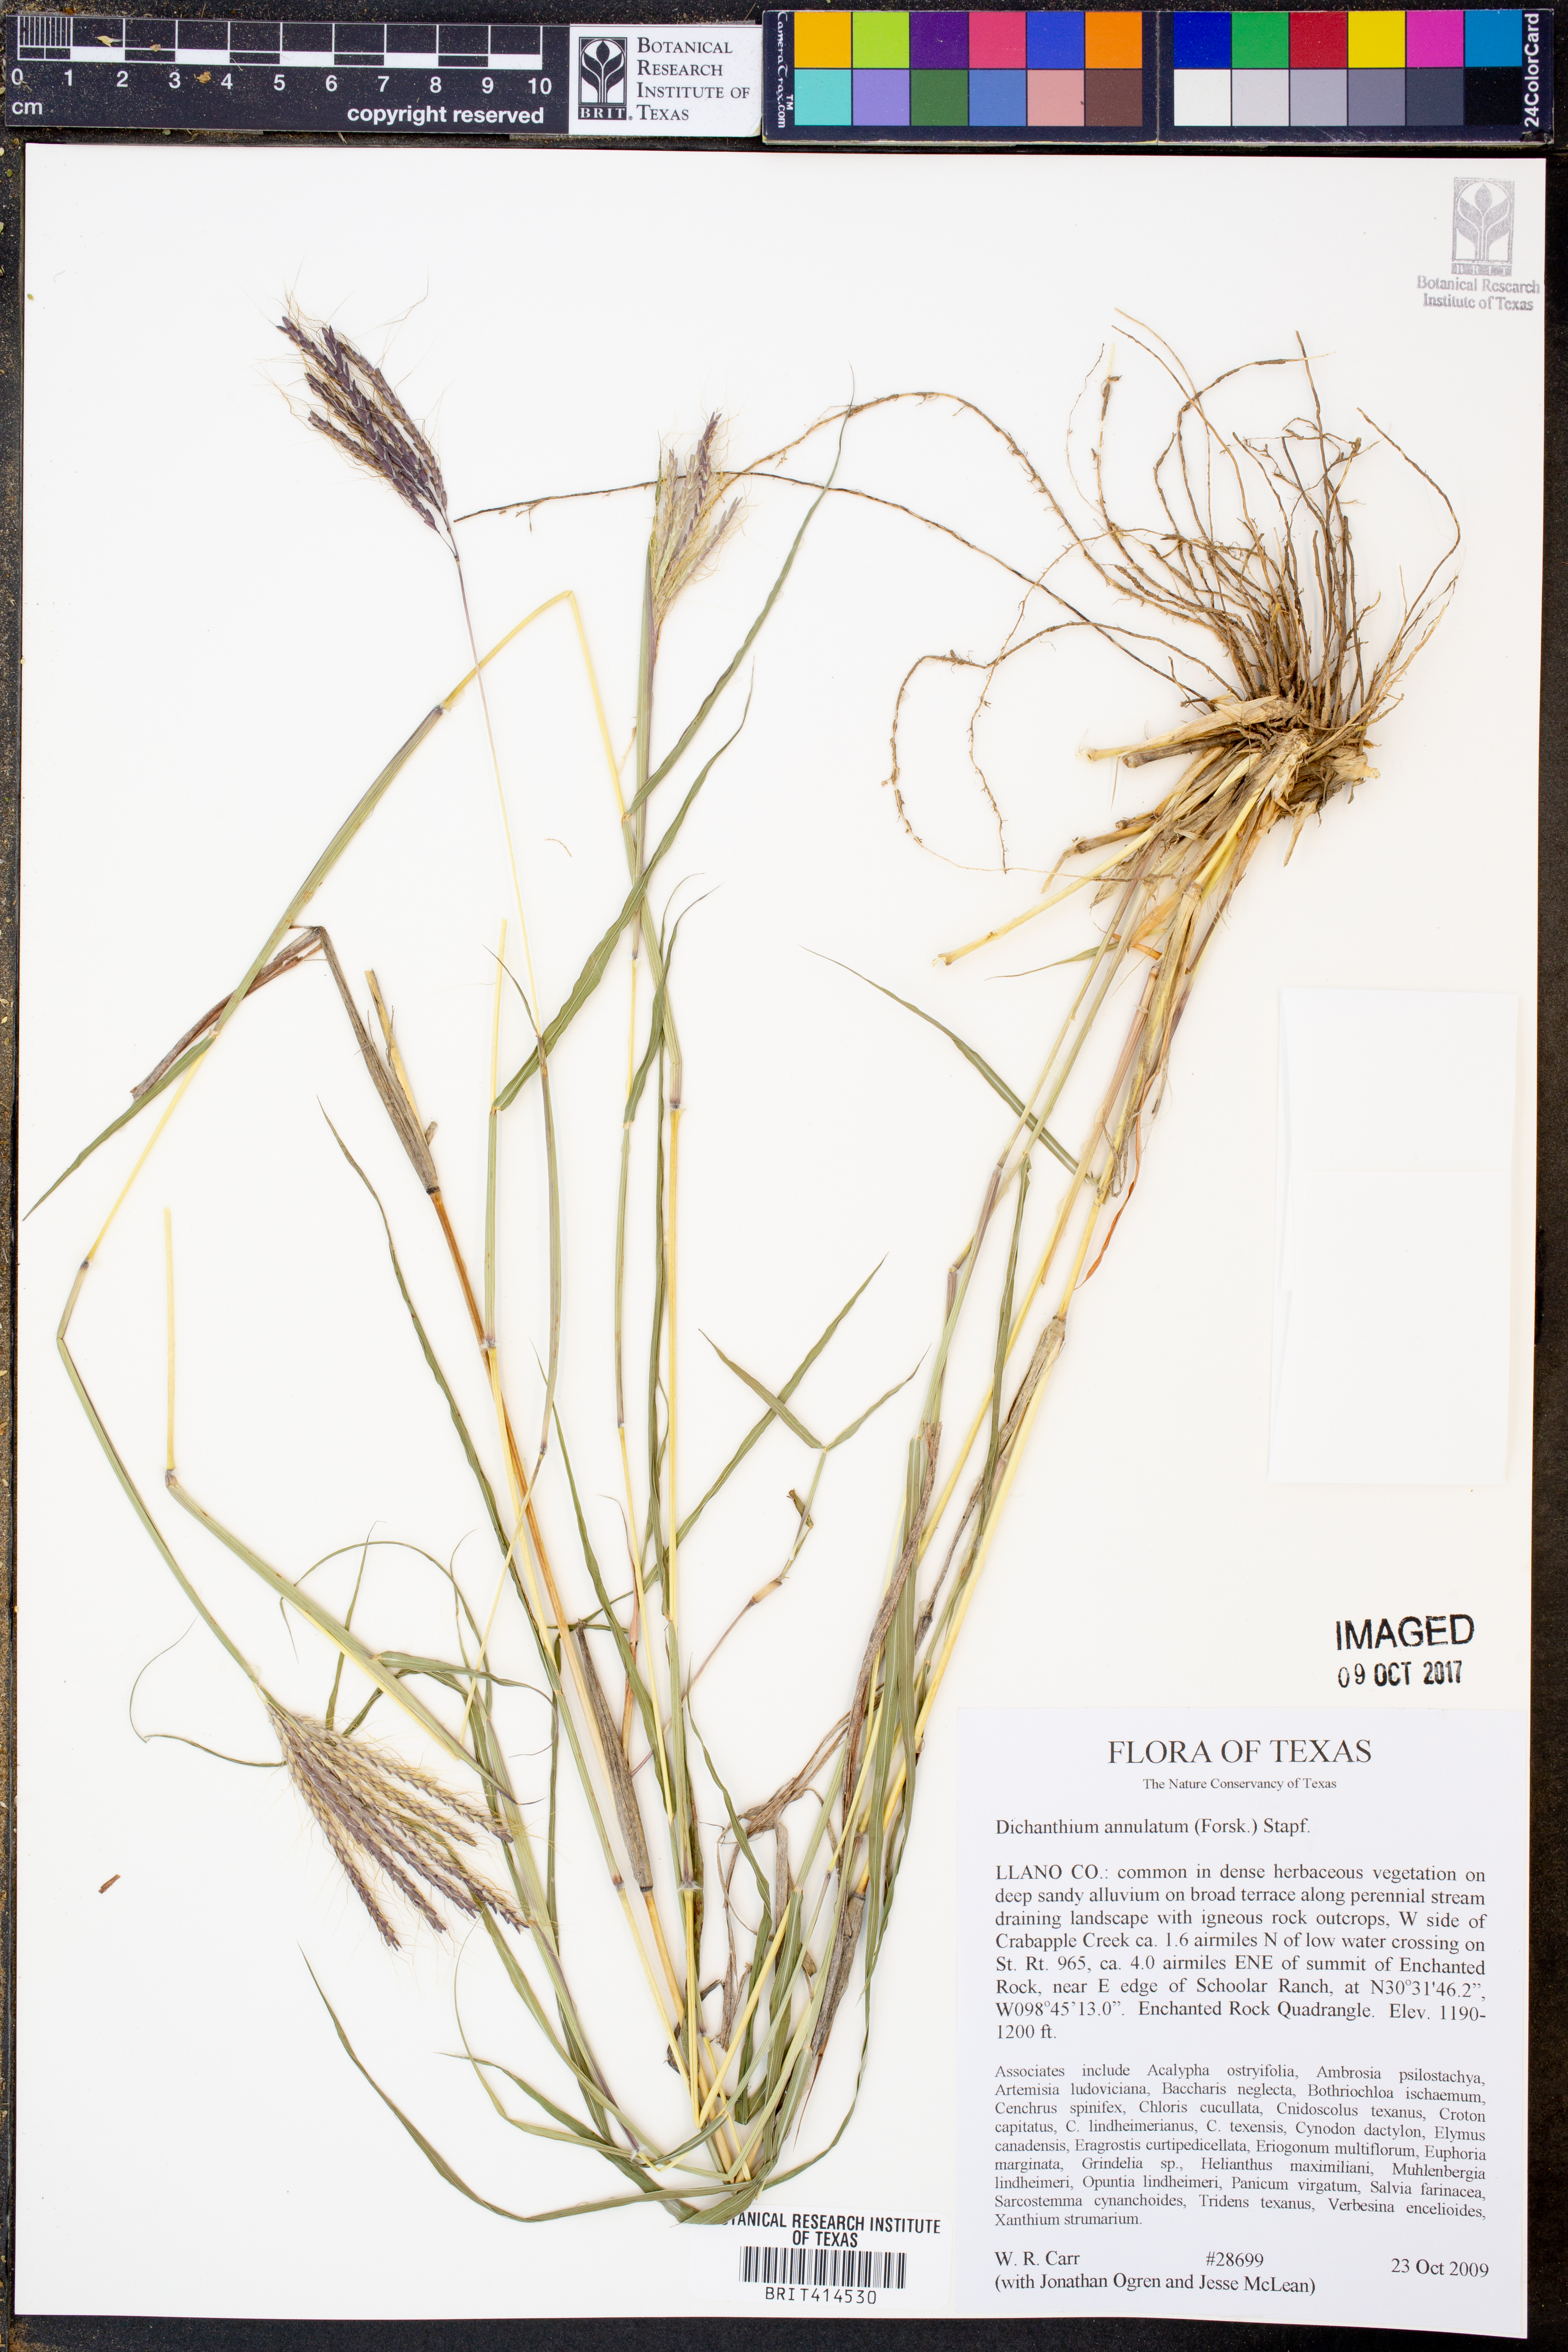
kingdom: Plantae
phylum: Tracheophyta
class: Liliopsida
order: Poales
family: Poaceae
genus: Dichanthium
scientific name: Dichanthium annulatum
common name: Kleberg's bluestem
